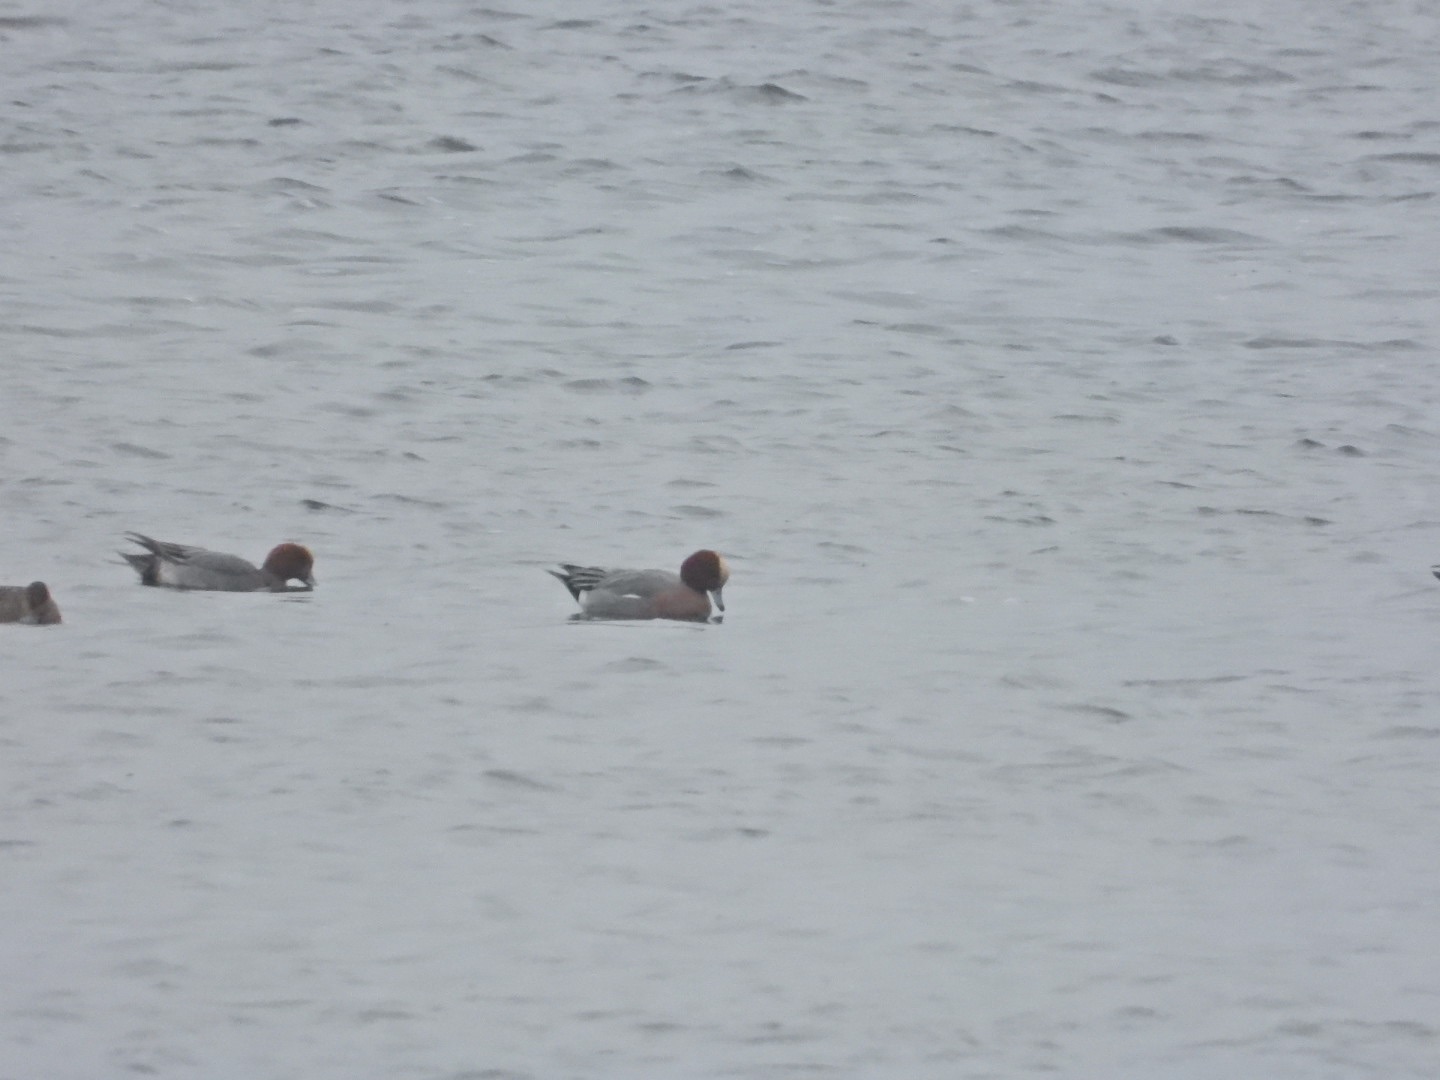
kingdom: Animalia
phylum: Chordata
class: Aves
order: Anseriformes
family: Anatidae
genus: Mareca
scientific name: Mareca penelope
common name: Pibeand
